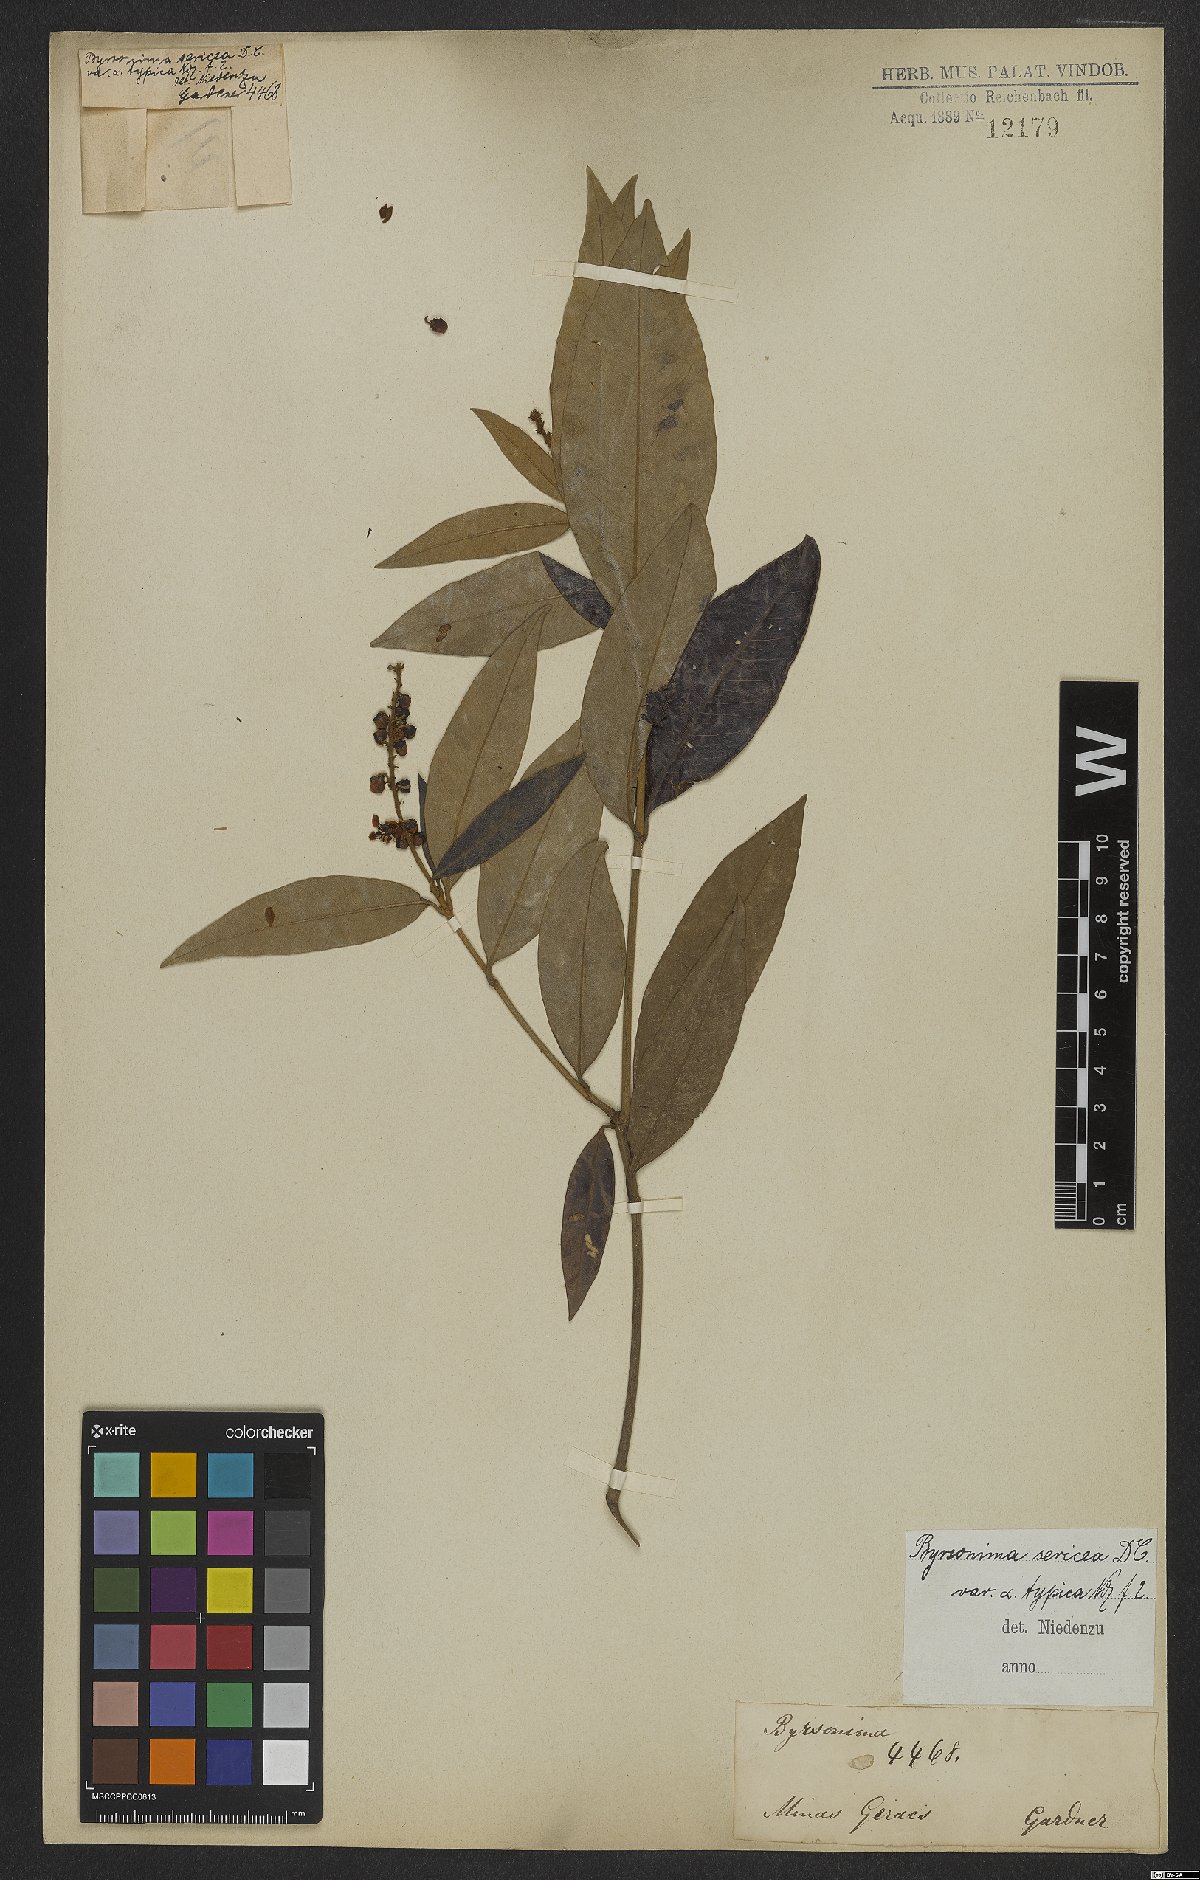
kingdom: Plantae
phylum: Tracheophyta
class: Magnoliopsida
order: Malpighiales
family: Malpighiaceae
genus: Byrsonima
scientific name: Byrsonima sericea
